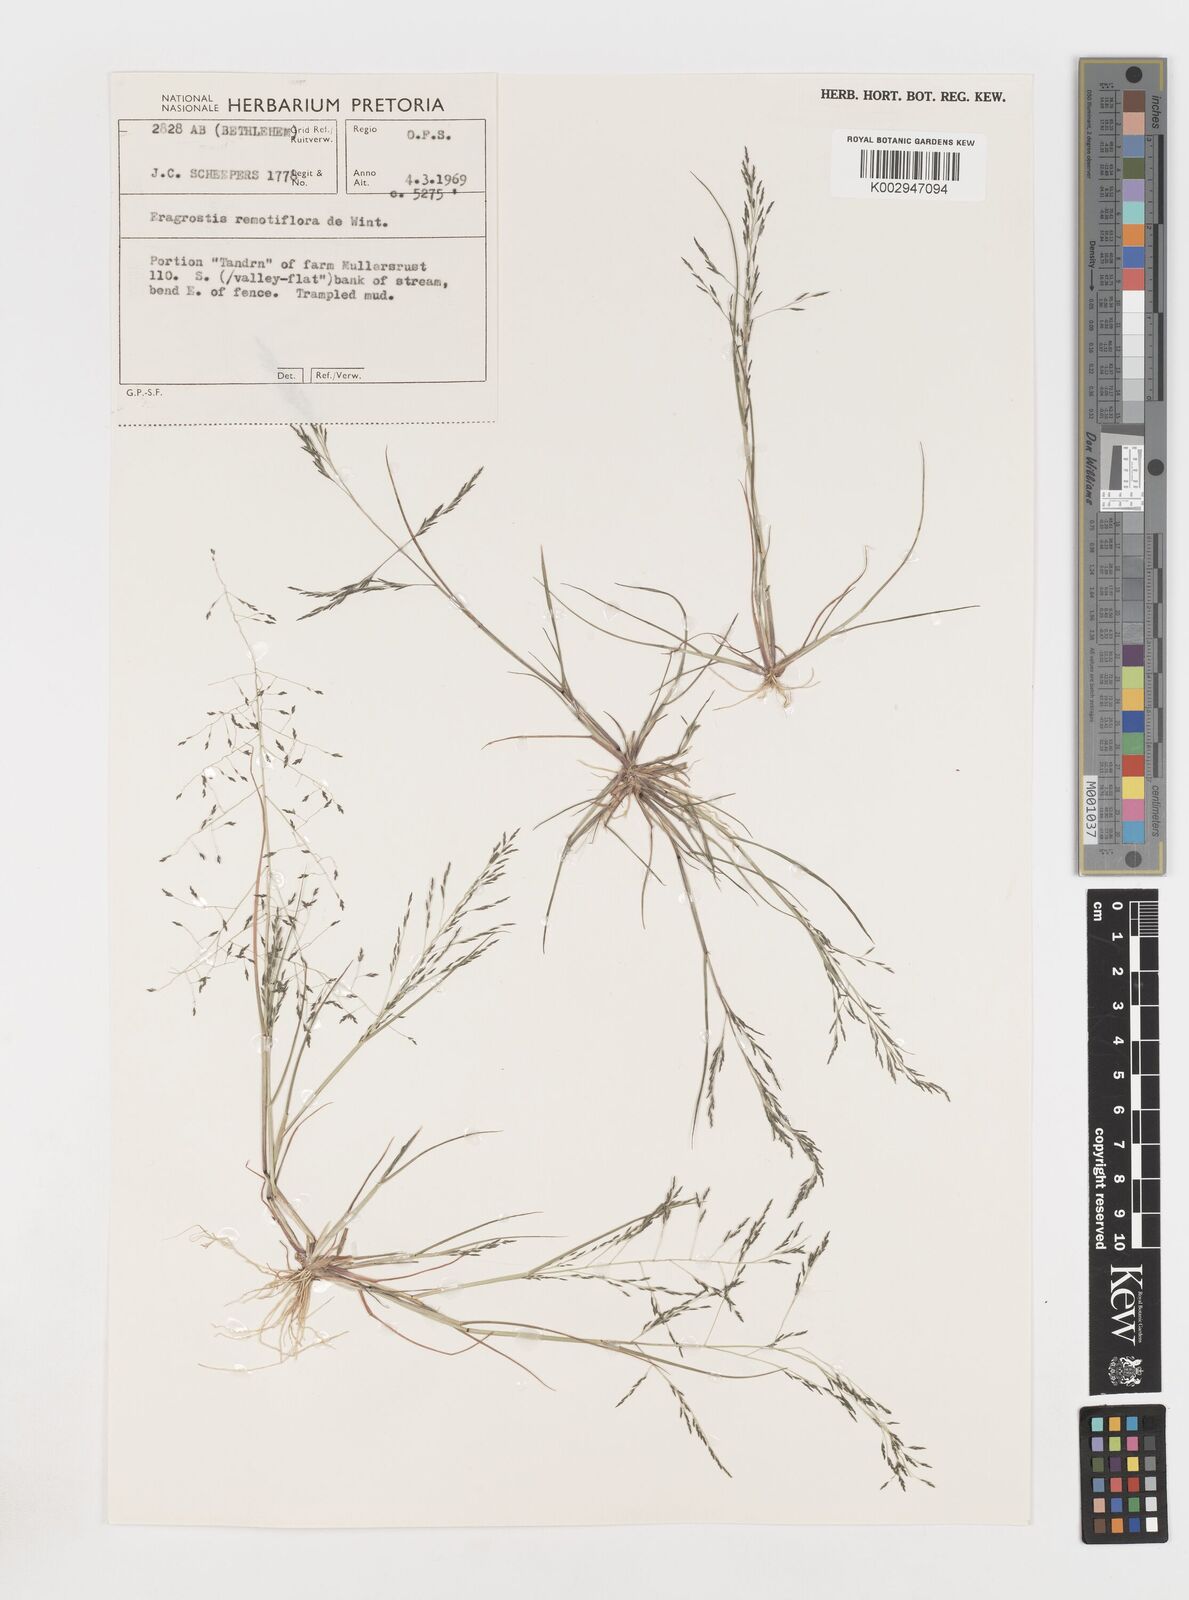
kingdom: Plantae
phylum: Tracheophyta
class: Liliopsida
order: Poales
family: Poaceae
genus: Eragrostis
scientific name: Eragrostis remotiflora
